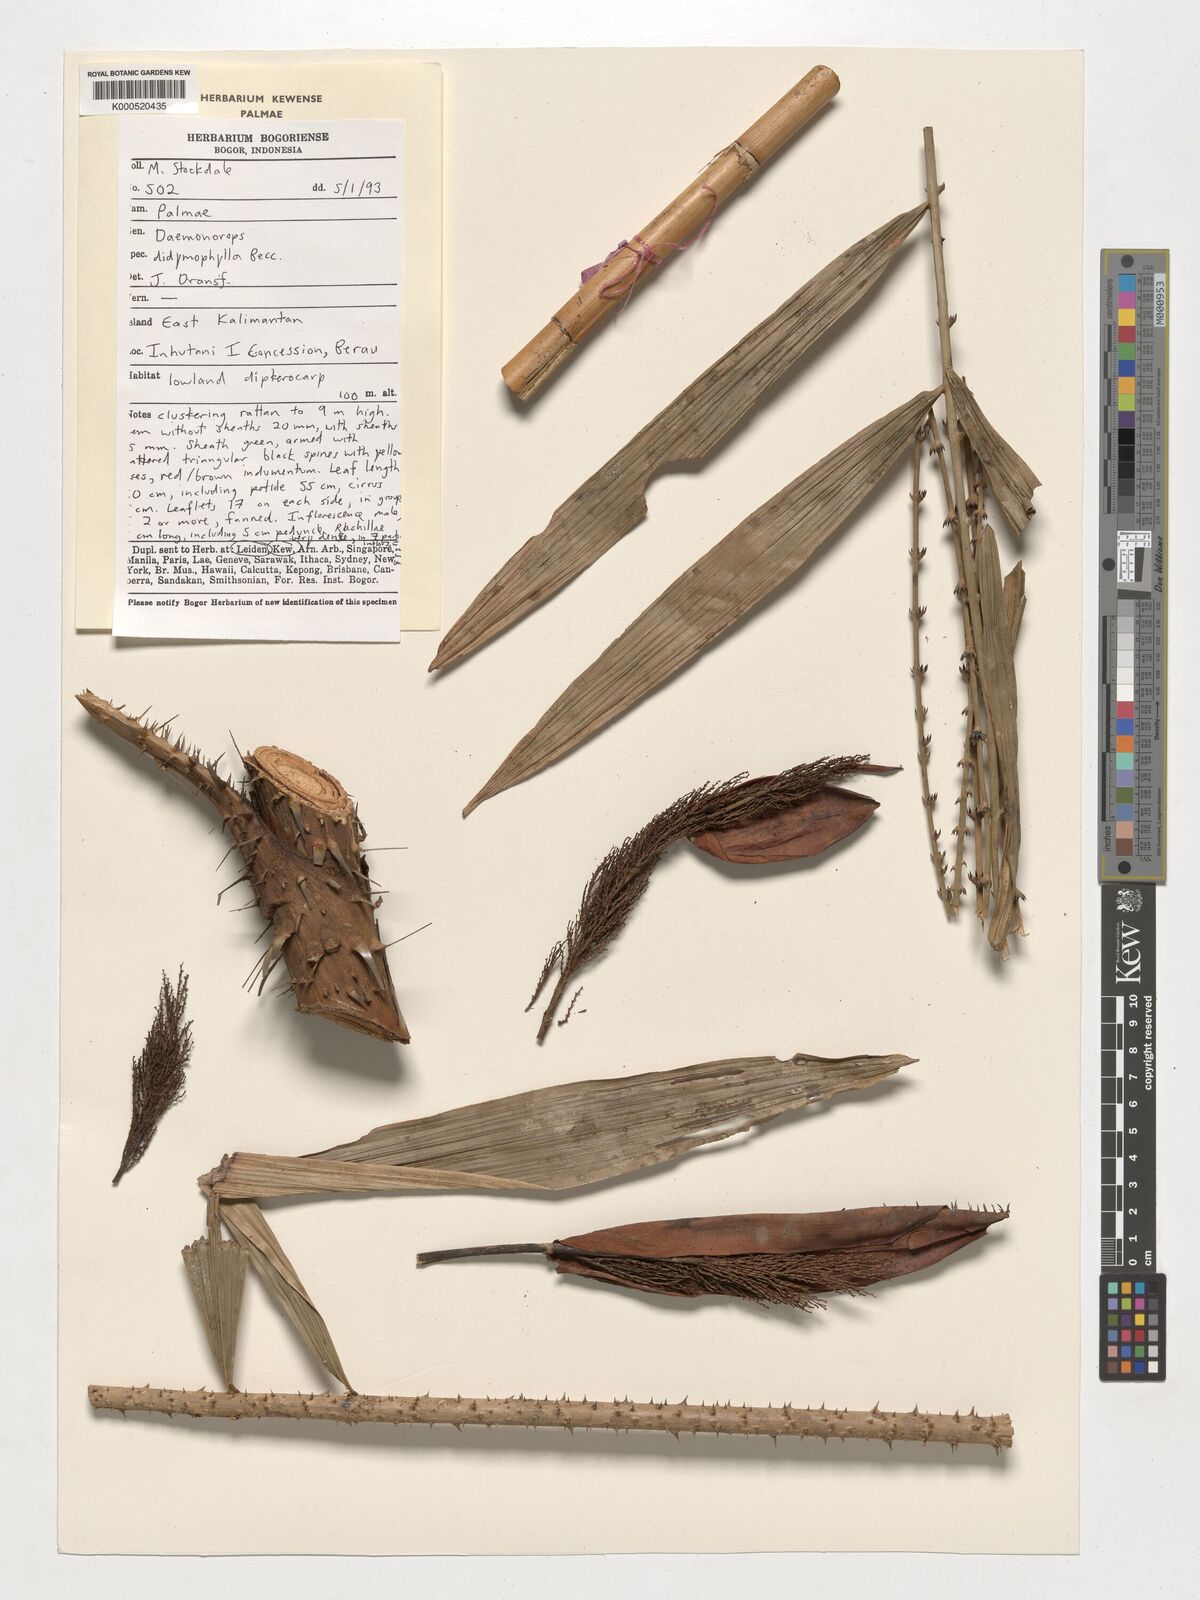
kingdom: Plantae
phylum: Tracheophyta
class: Liliopsida
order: Arecales
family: Arecaceae
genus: Calamus
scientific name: Calamus gracilipes
